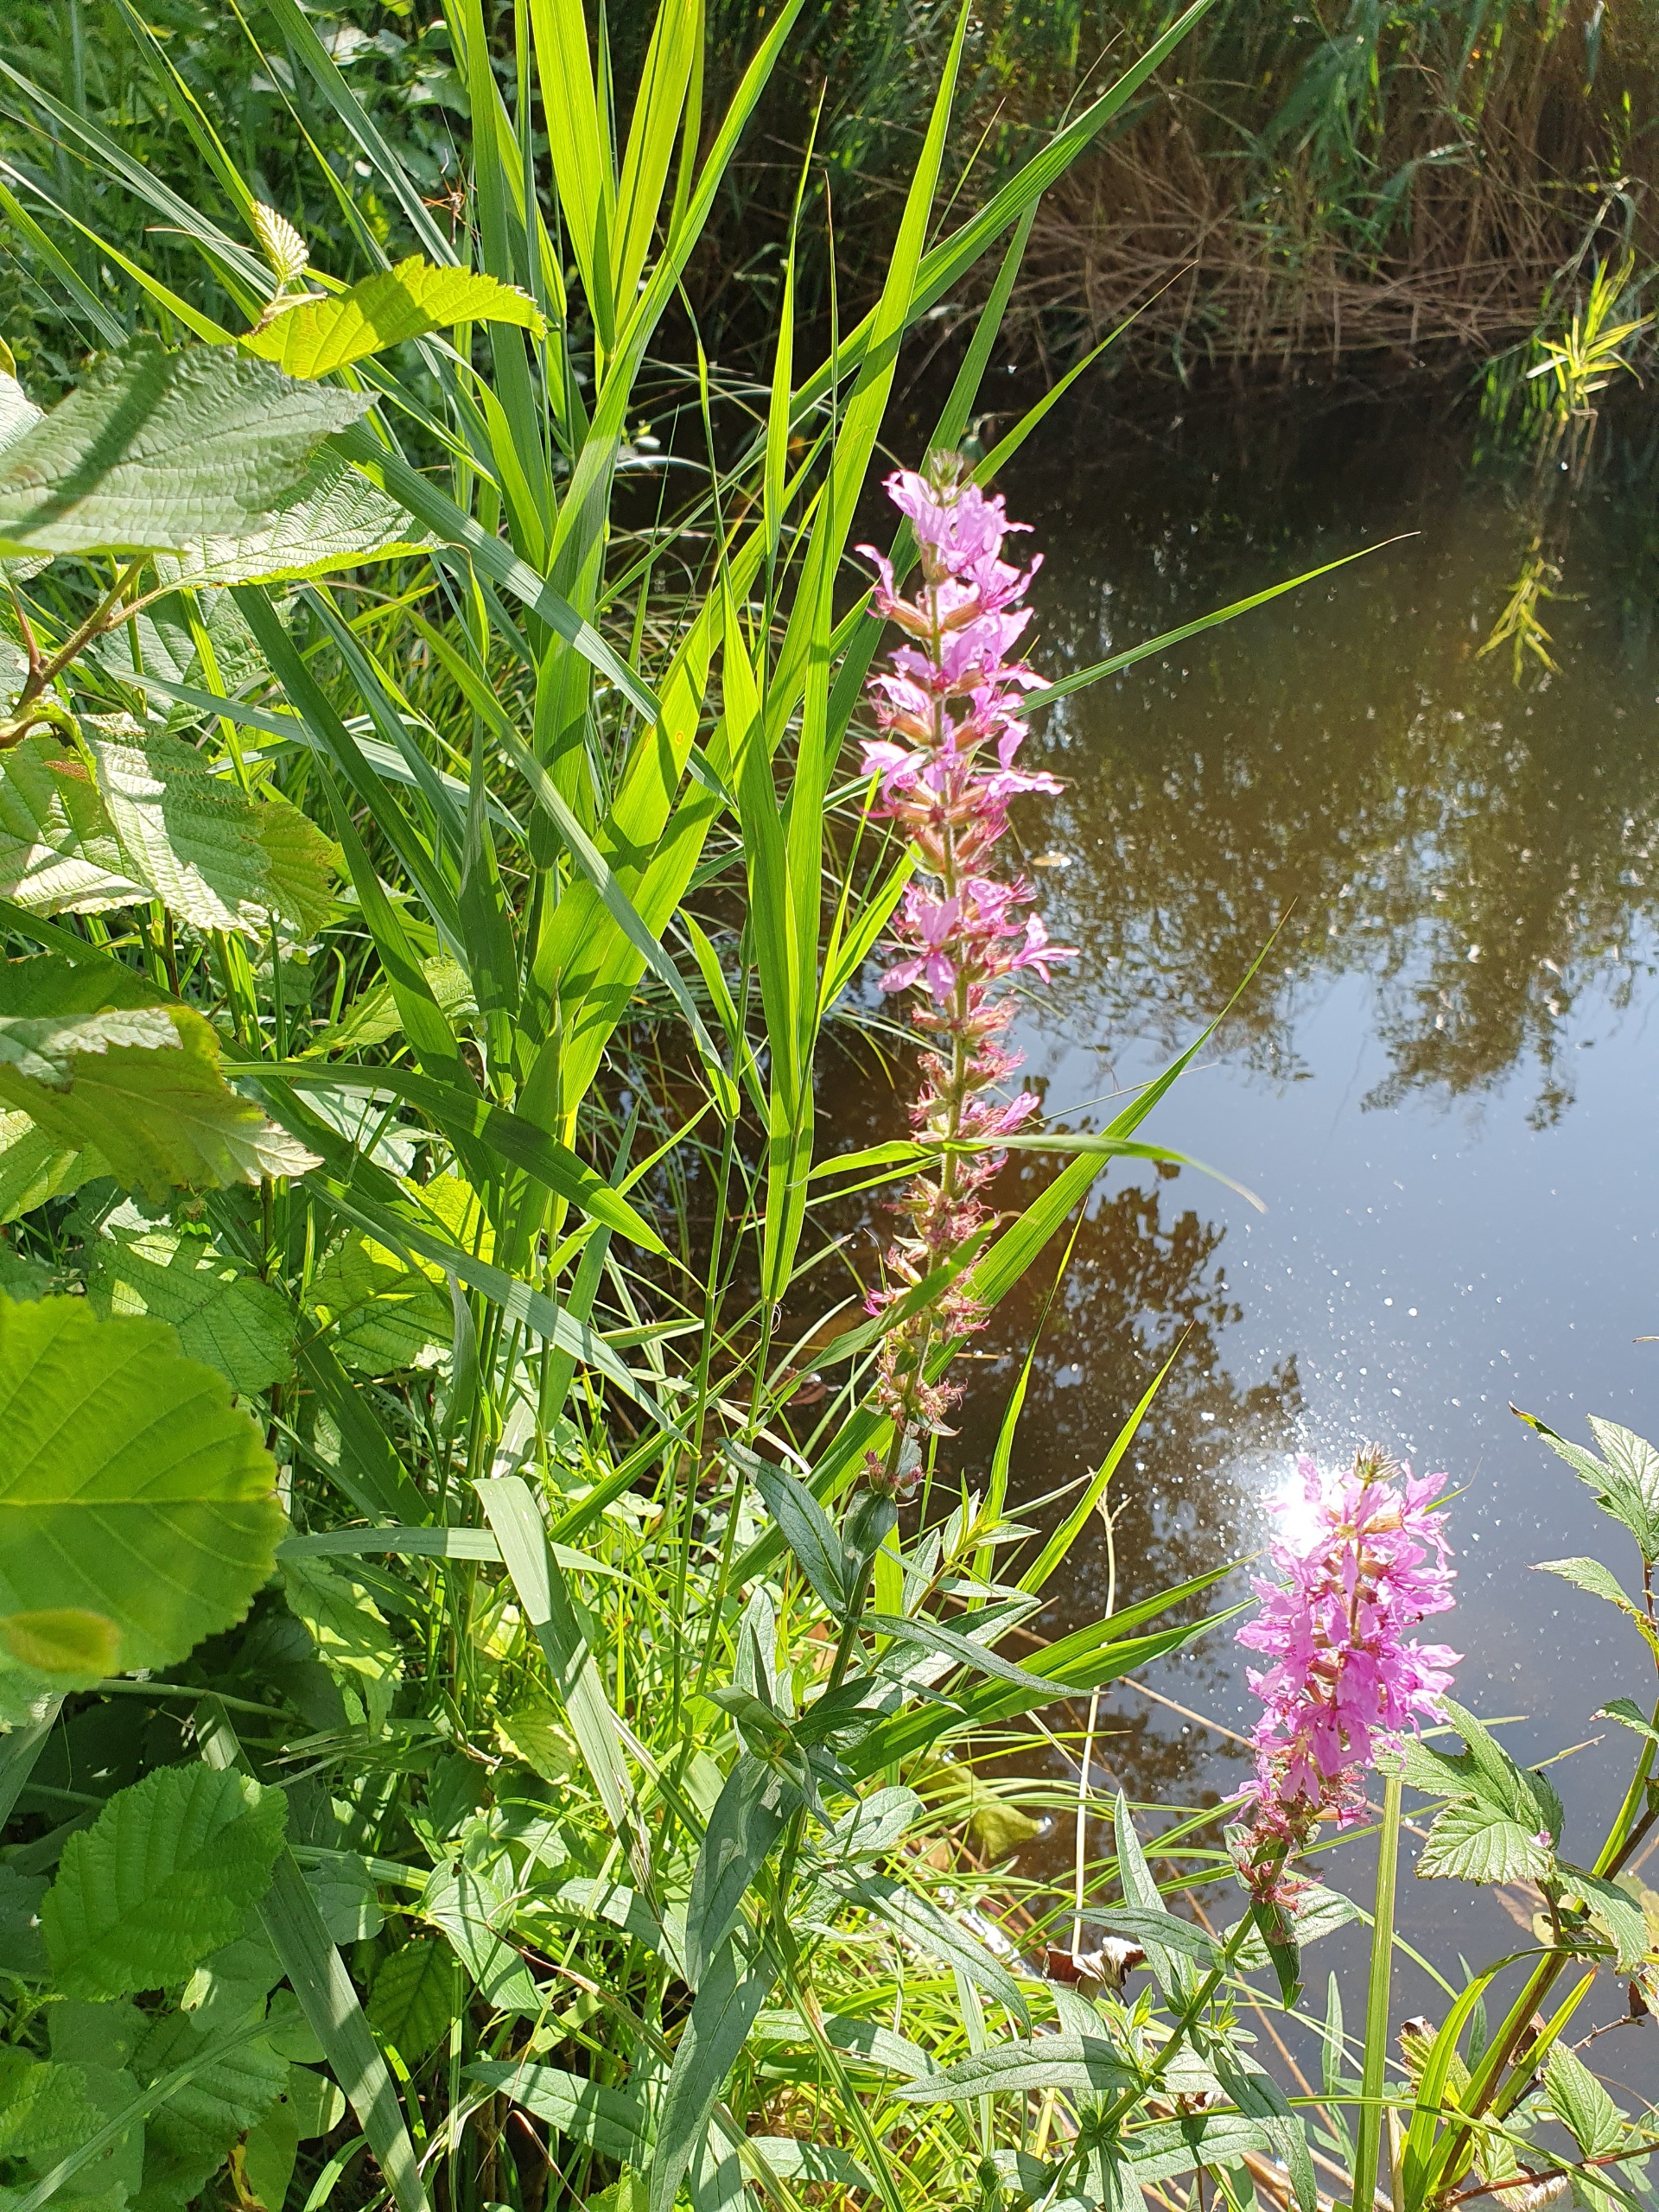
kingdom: Plantae
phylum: Tracheophyta
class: Magnoliopsida
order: Myrtales
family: Lythraceae
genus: Lythrum
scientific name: Lythrum salicaria
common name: Kattehale
